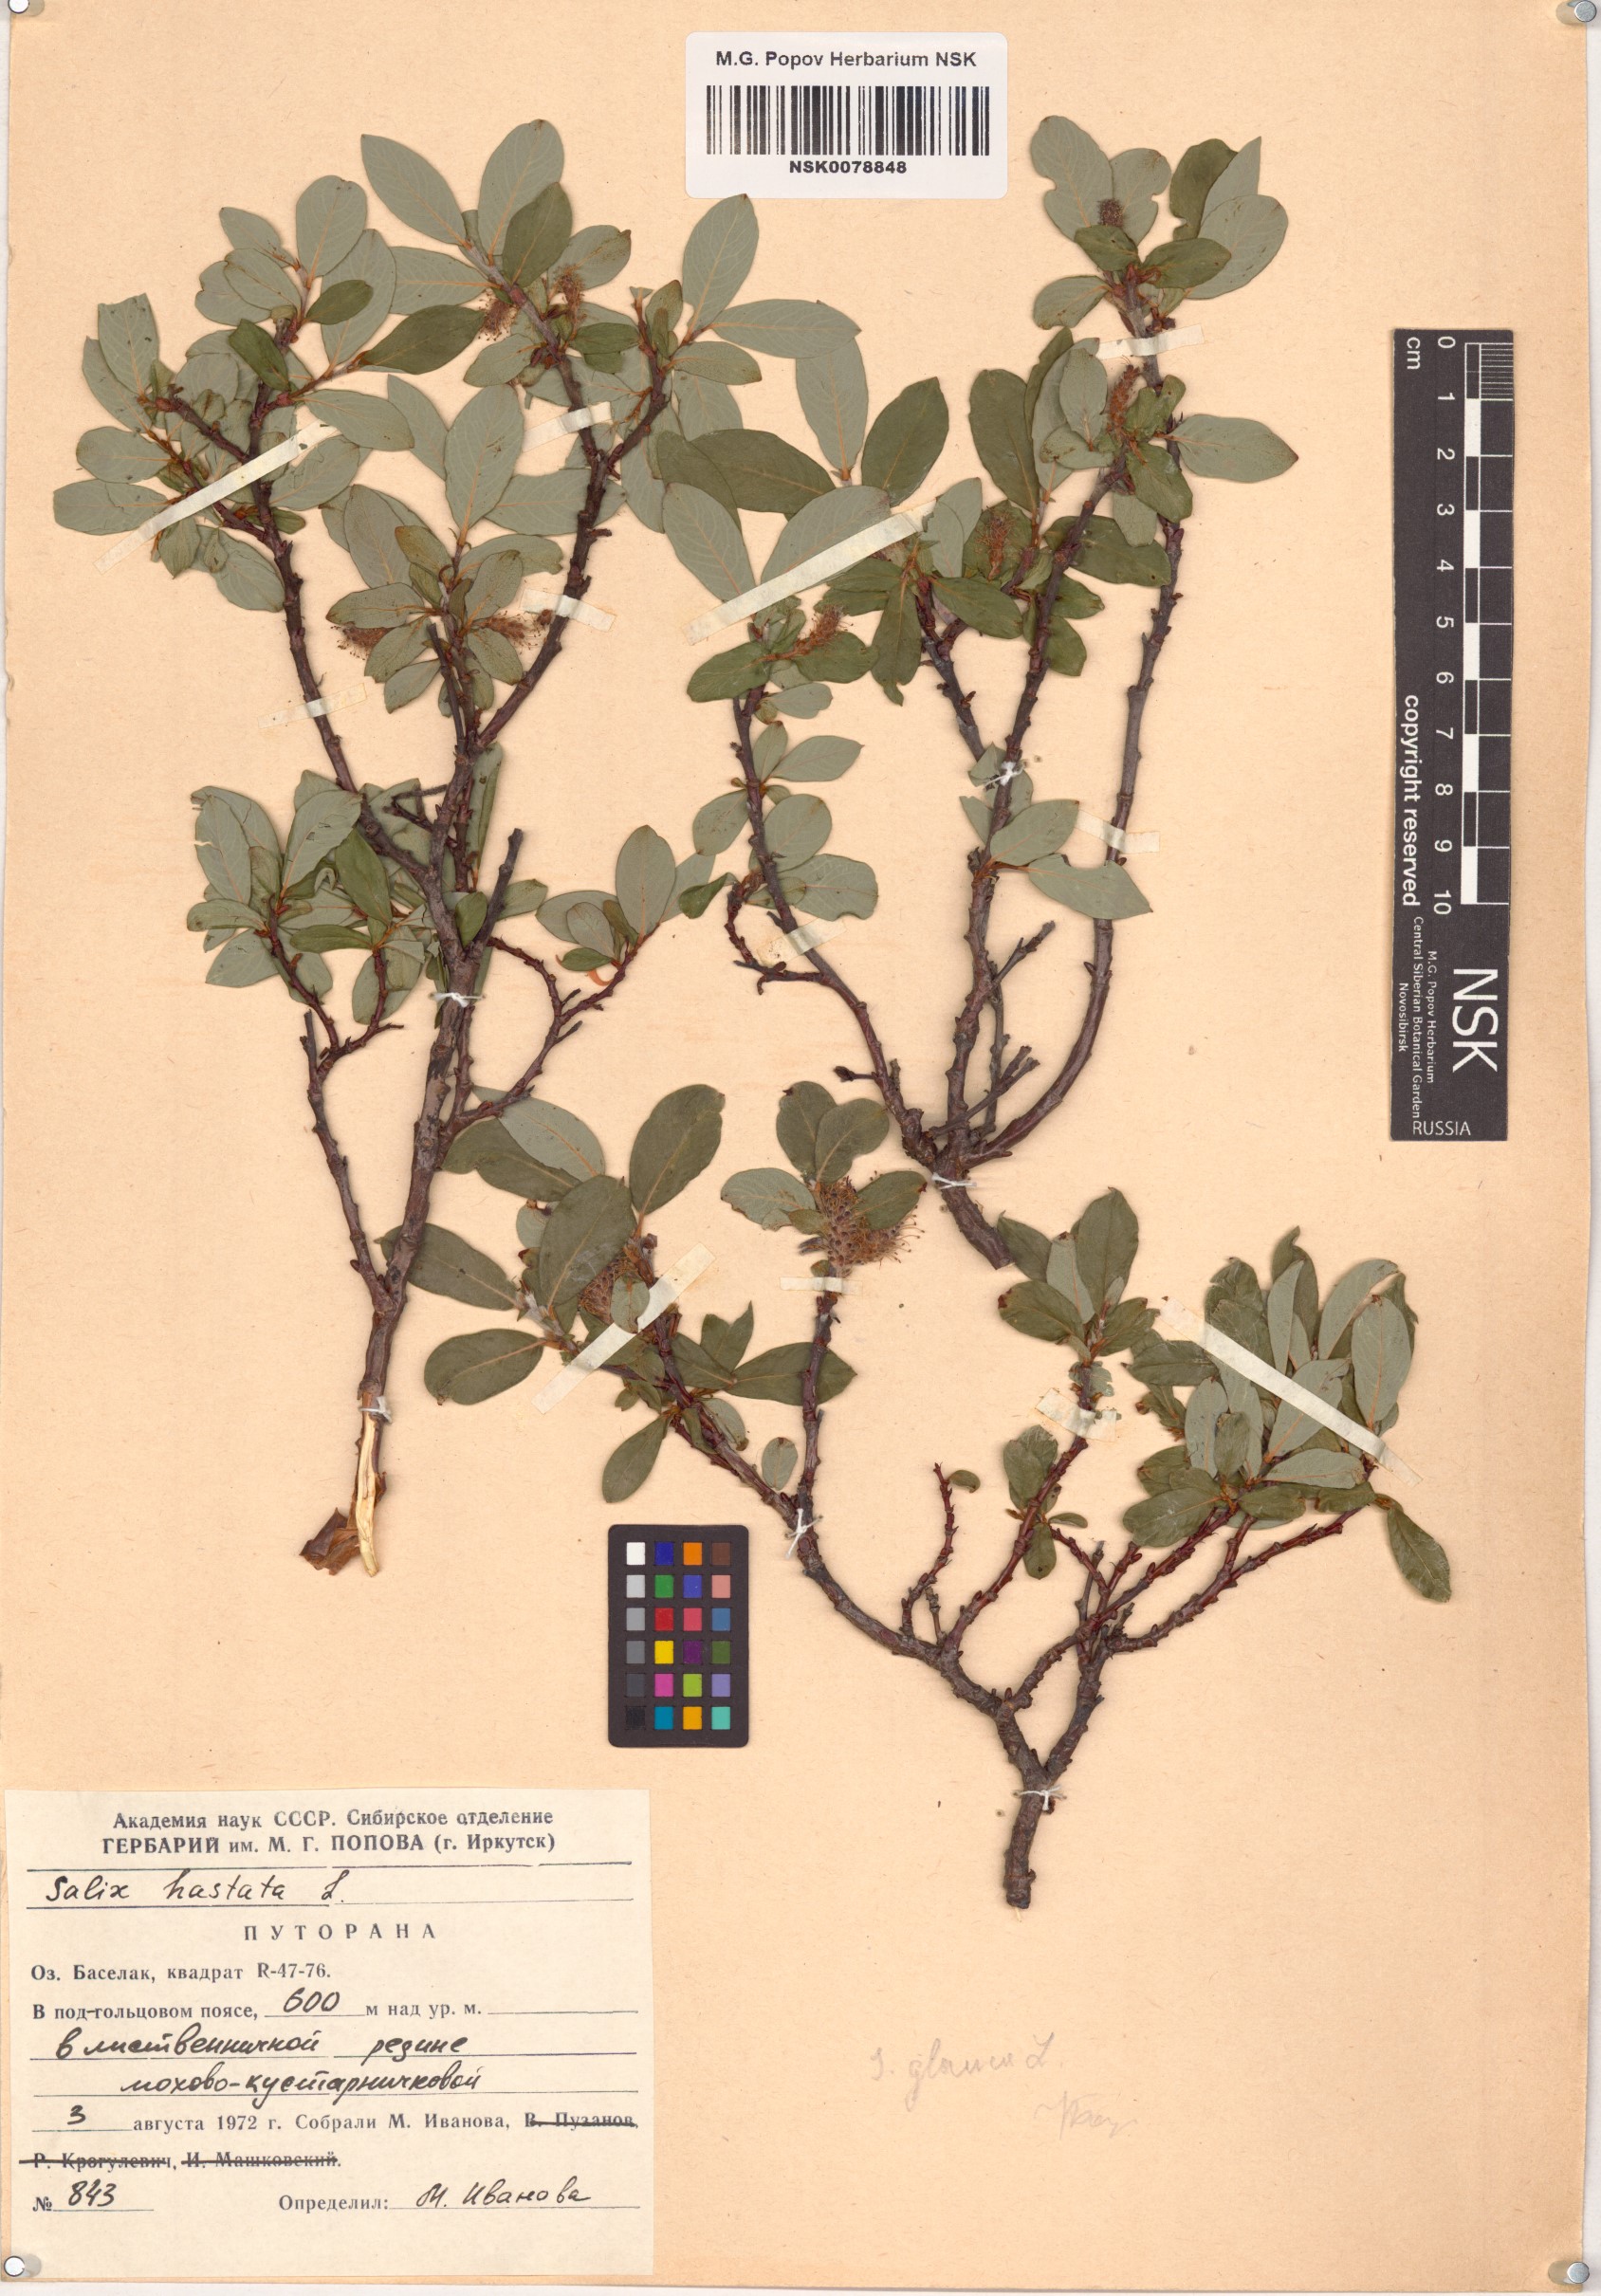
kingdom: Plantae
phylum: Tracheophyta
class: Magnoliopsida
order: Malpighiales
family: Salicaceae
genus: Salix
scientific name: Salix hastata
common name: Halberd willow
